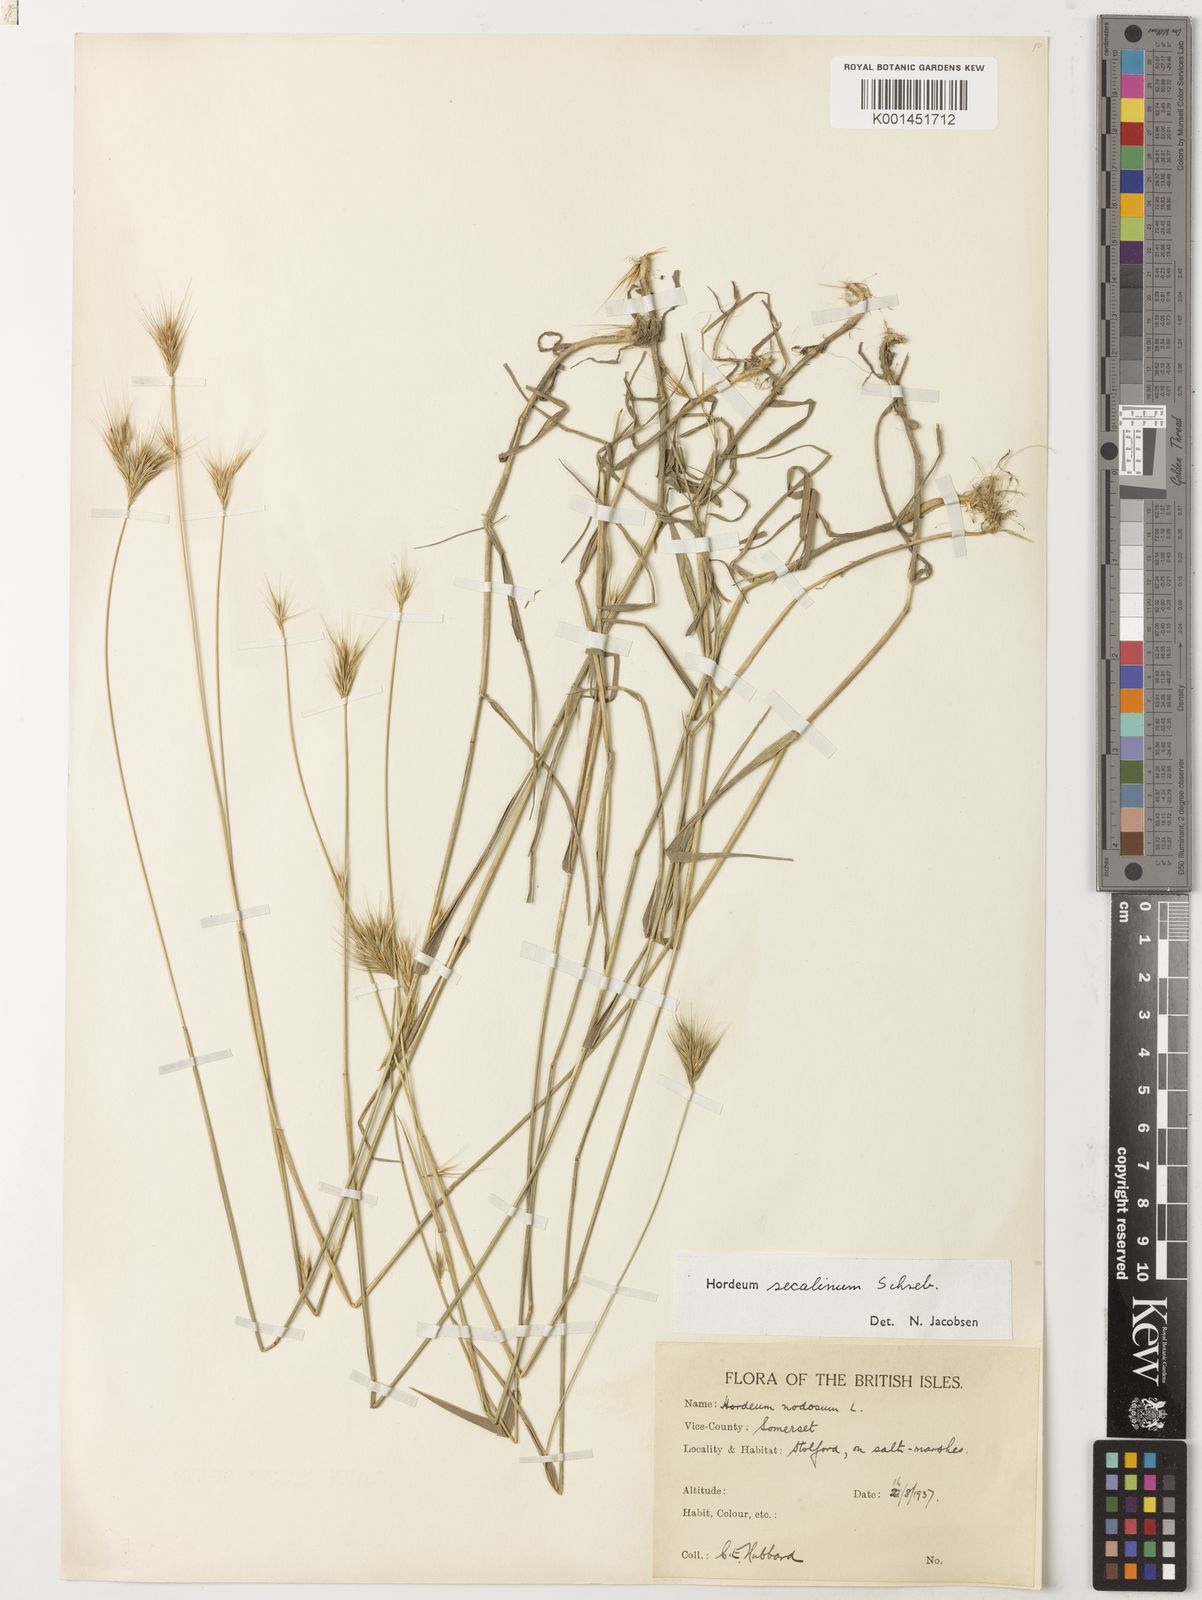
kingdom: Plantae
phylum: Tracheophyta
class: Liliopsida
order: Poales
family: Poaceae
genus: Hordeum
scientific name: Hordeum secalinum
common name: Meadow barley
